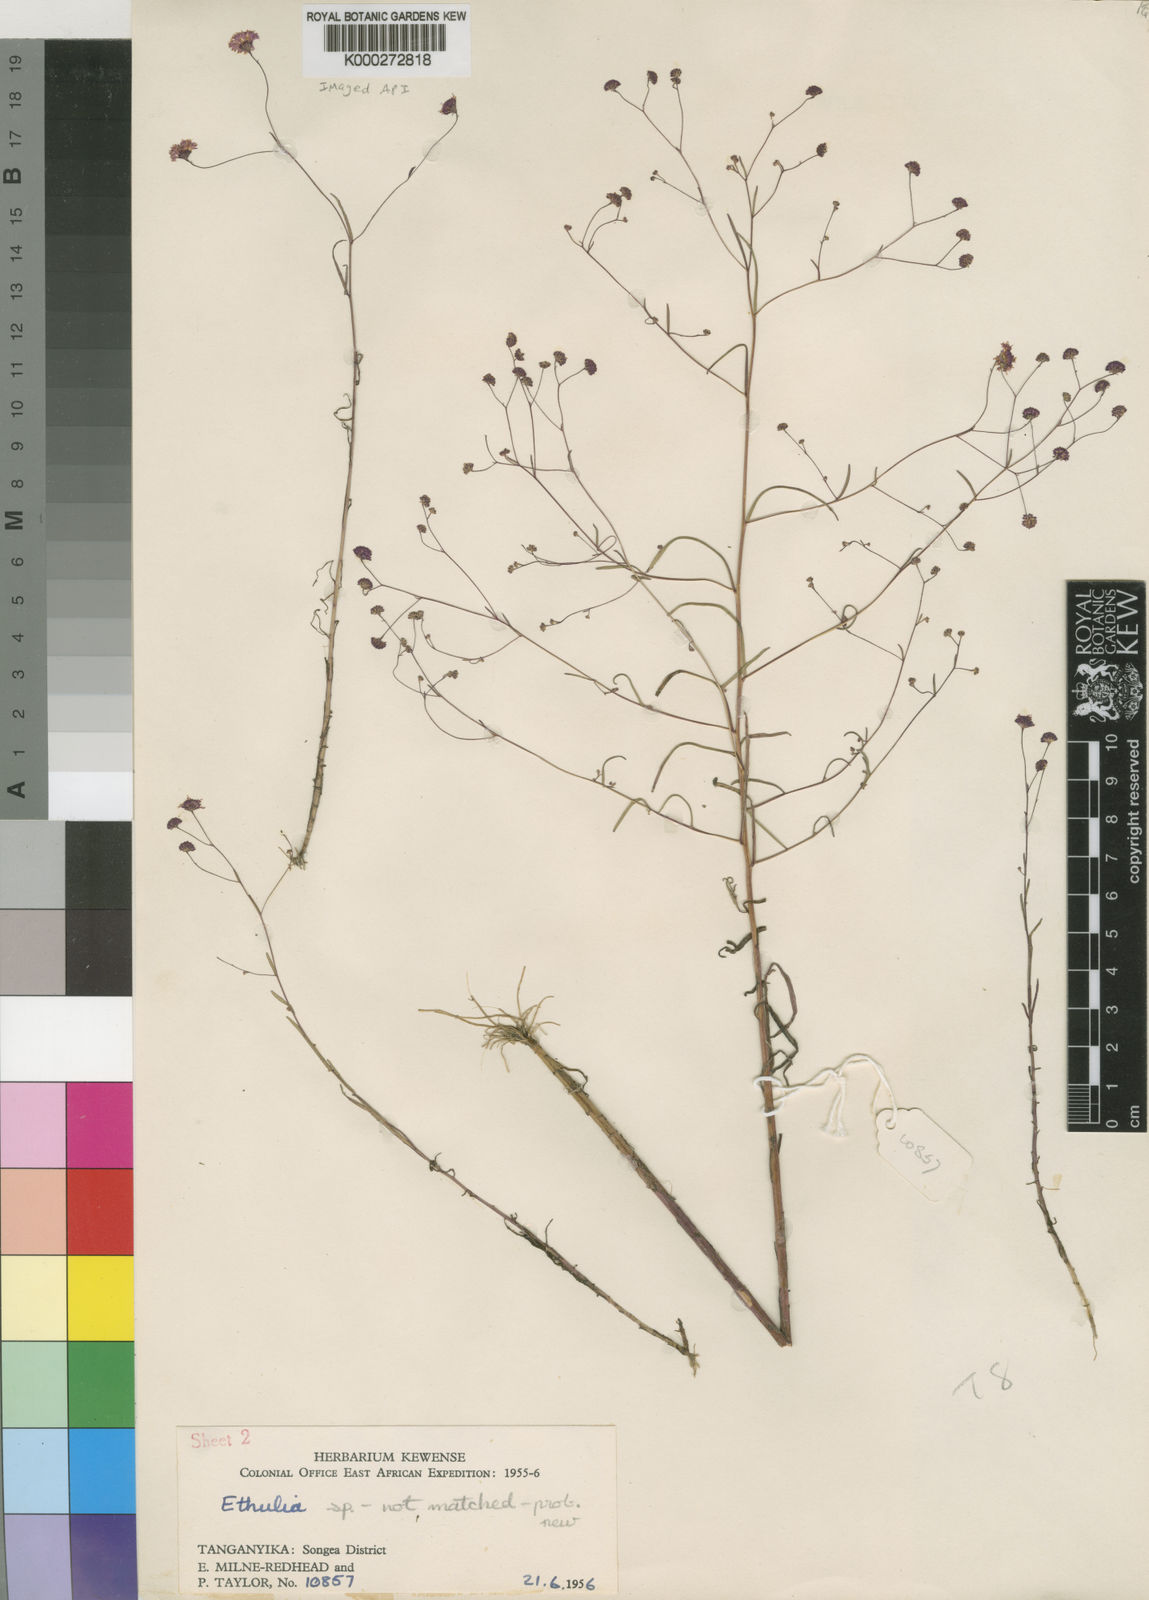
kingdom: Plantae
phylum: Tracheophyta
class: Magnoliopsida
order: Asterales
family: Asteraceae
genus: Bothriocline
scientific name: Bothriocline emilioides
